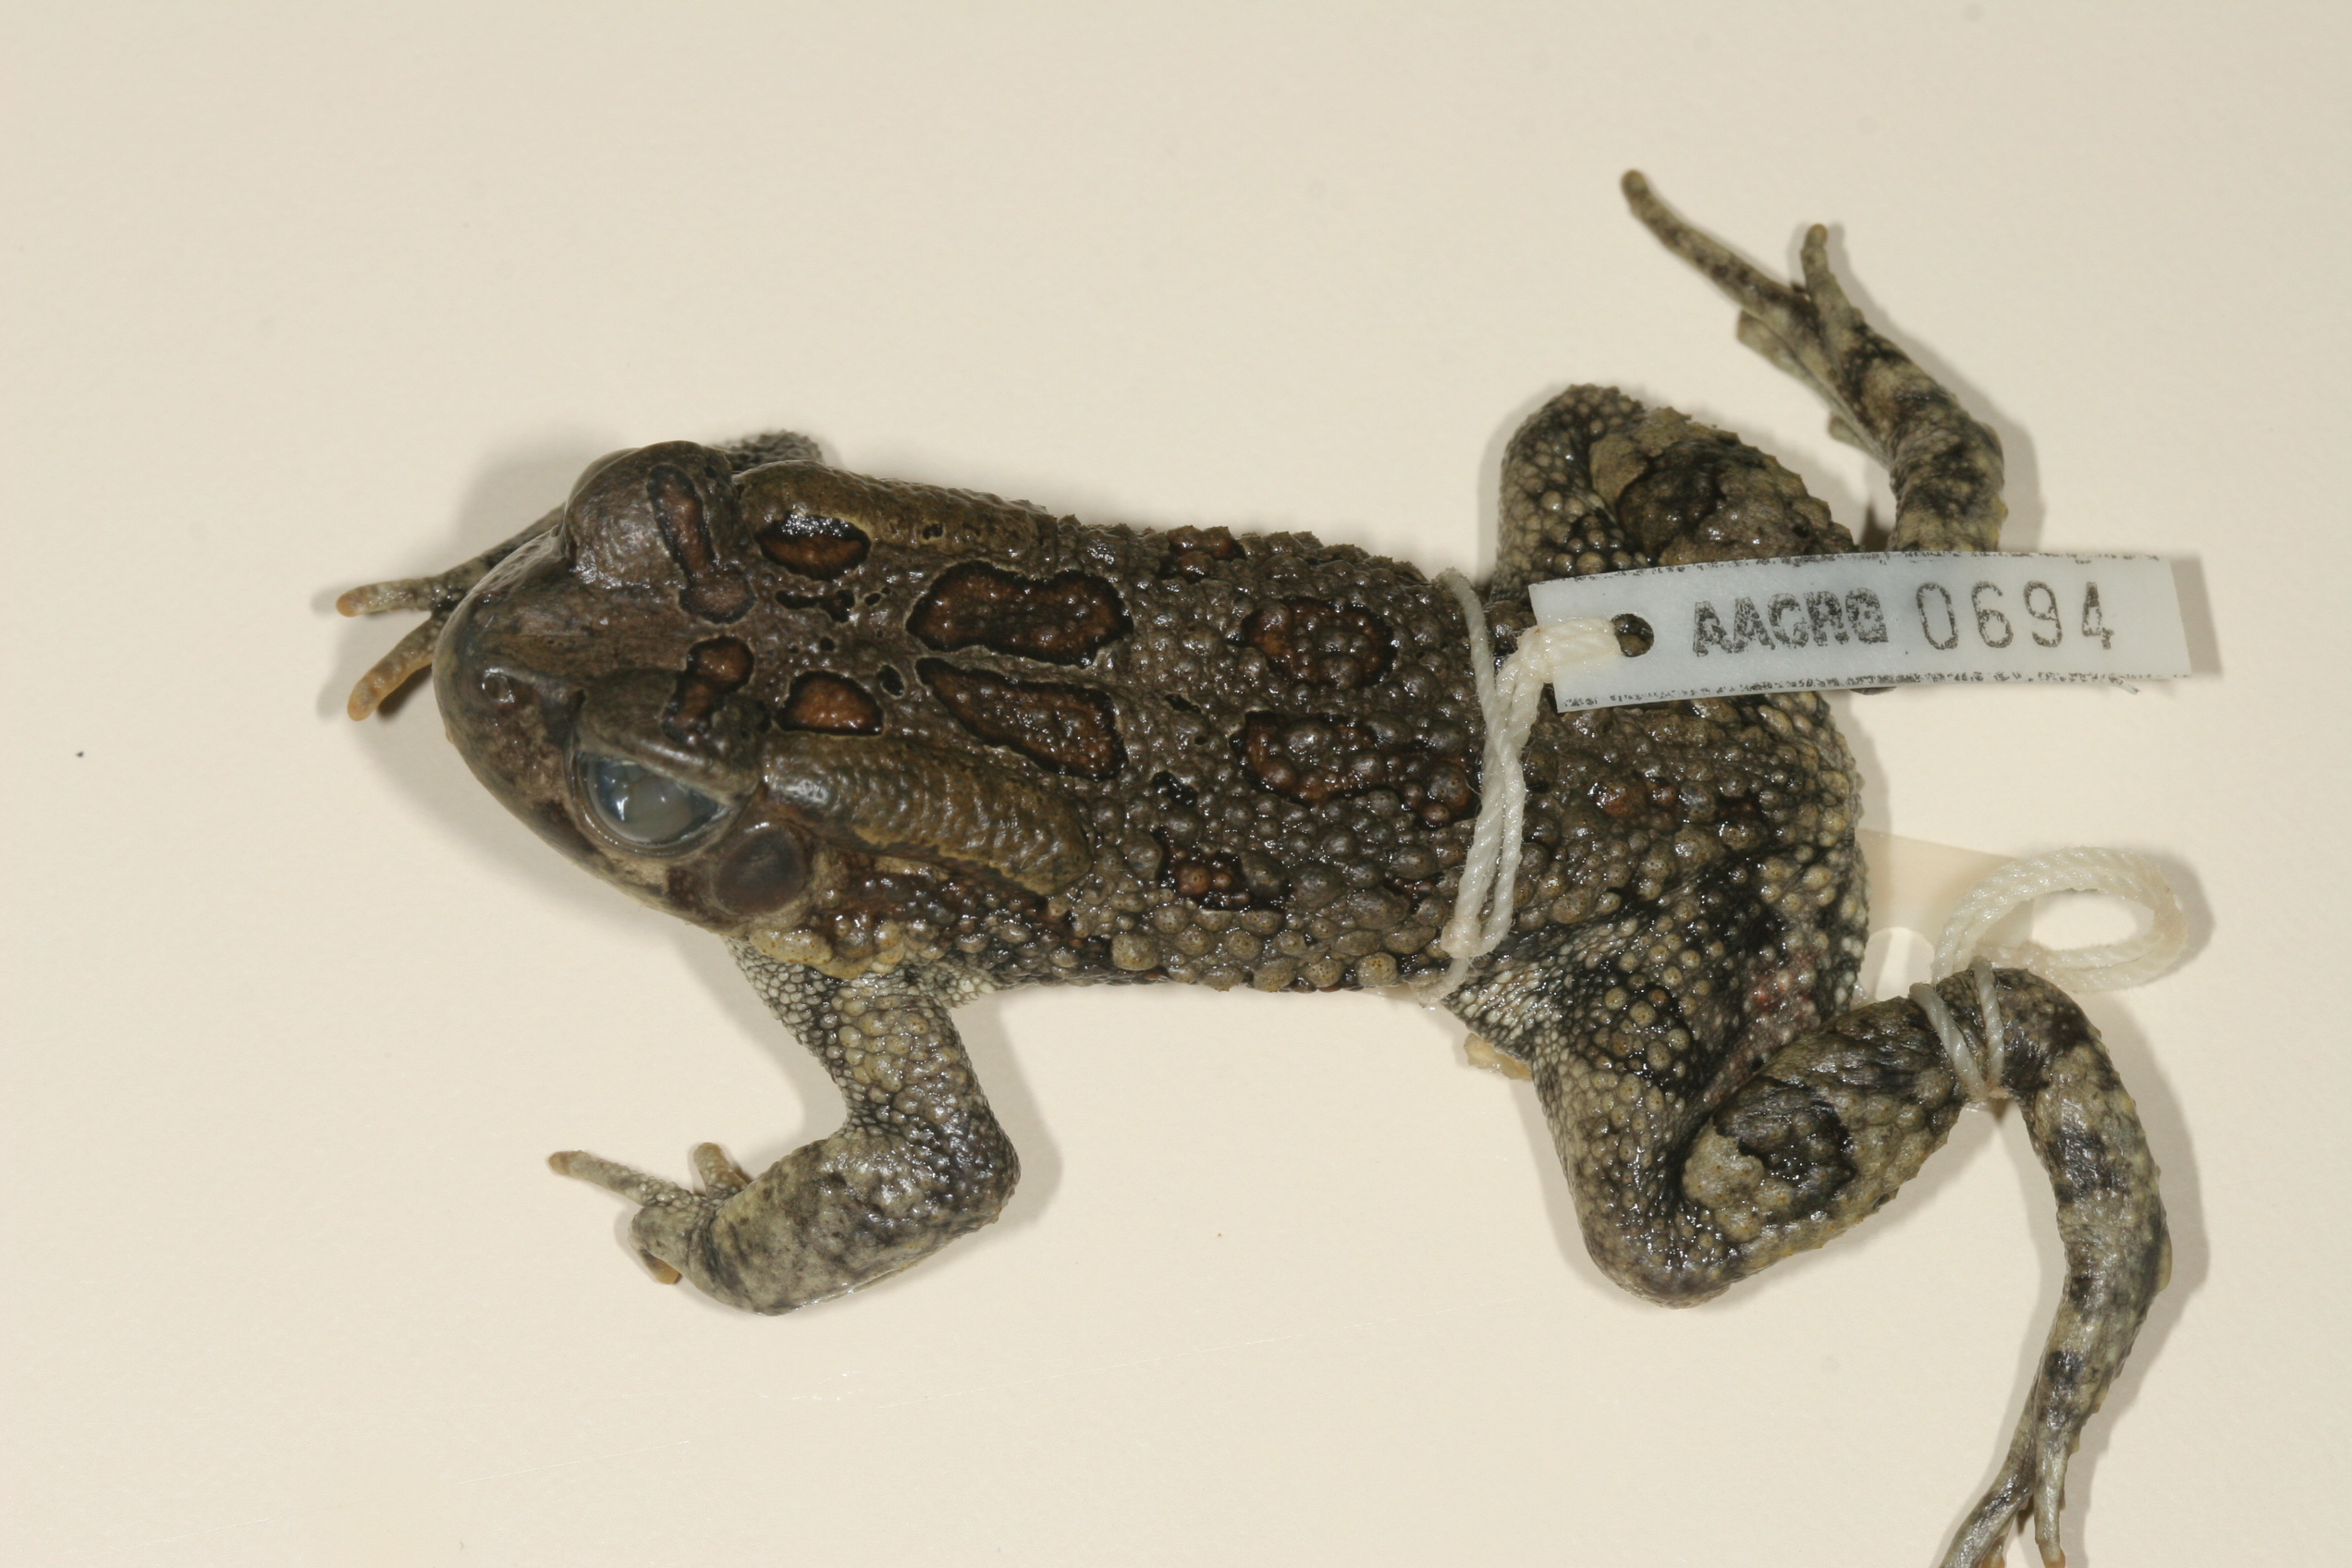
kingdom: Animalia
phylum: Chordata
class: Amphibia
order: Anura
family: Bufonidae
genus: Sclerophrys
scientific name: Sclerophrys garmani
